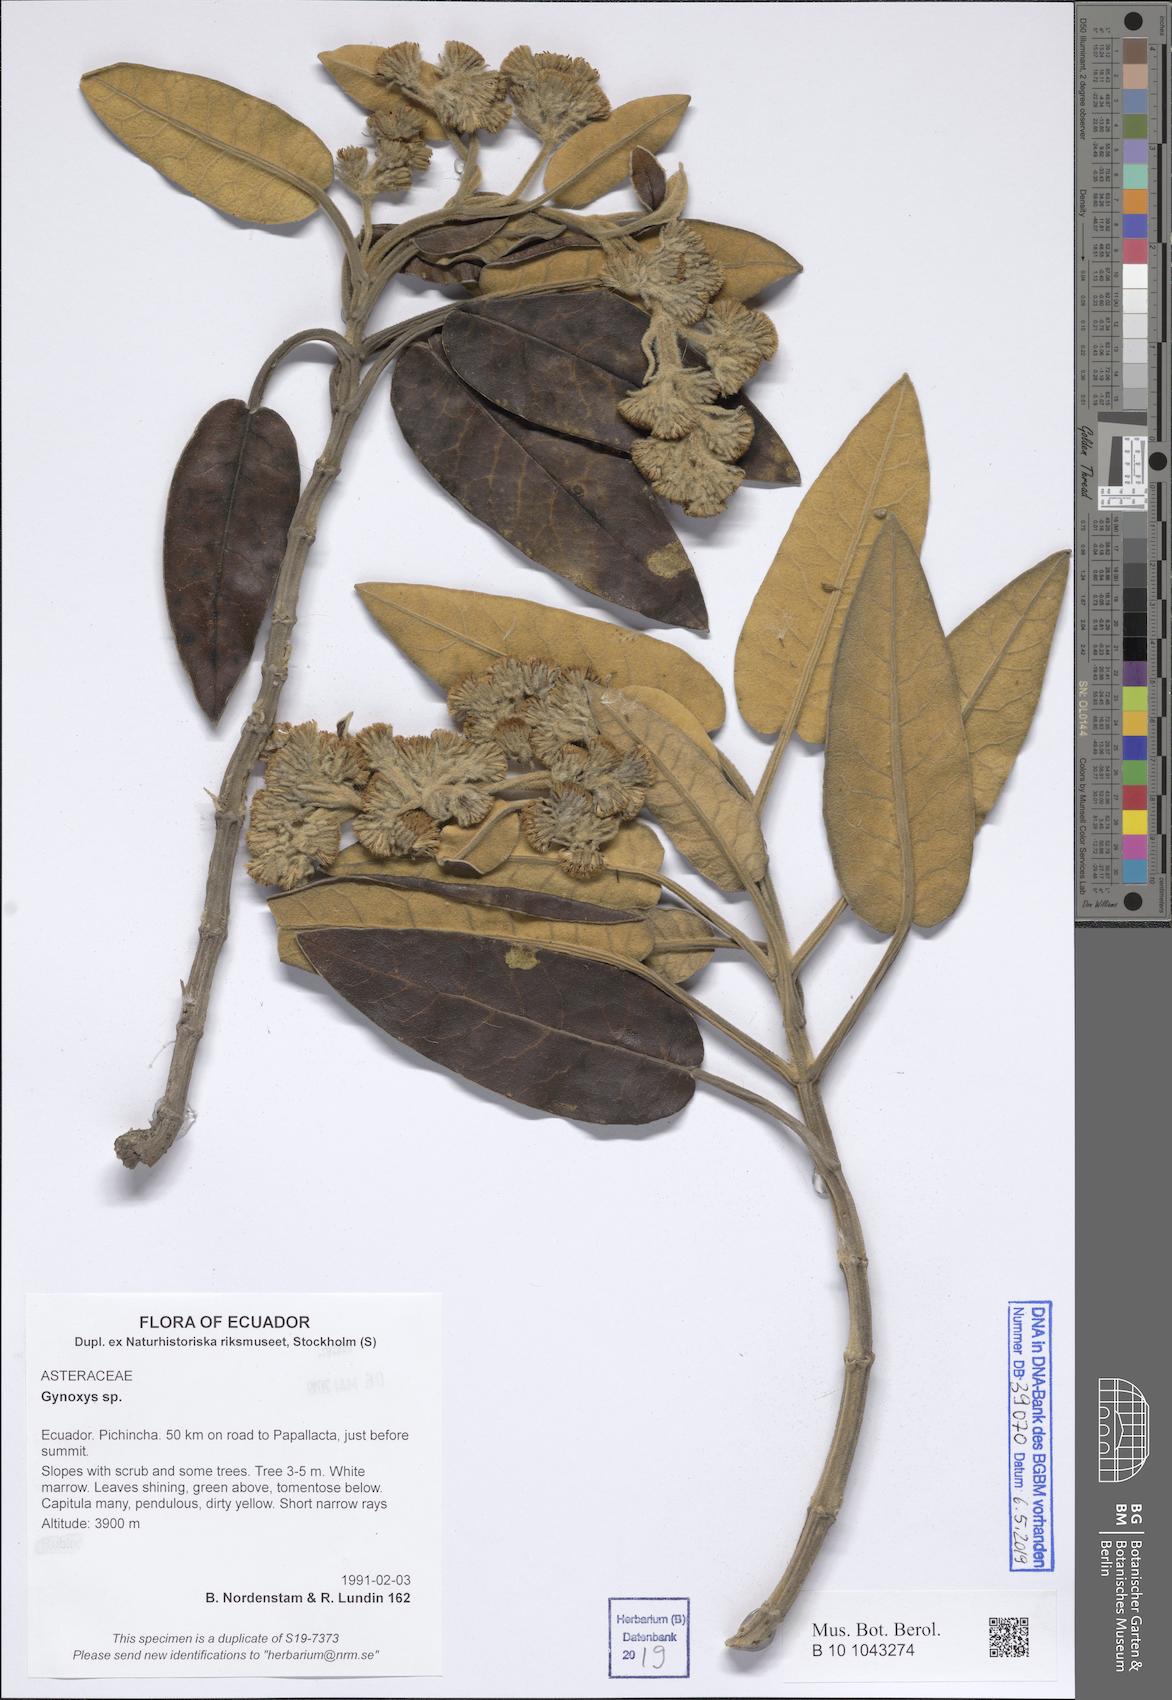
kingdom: Plantae
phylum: Tracheophyta
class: Magnoliopsida
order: Asterales
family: Asteraceae
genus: Gynoxys
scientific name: Gynoxys
